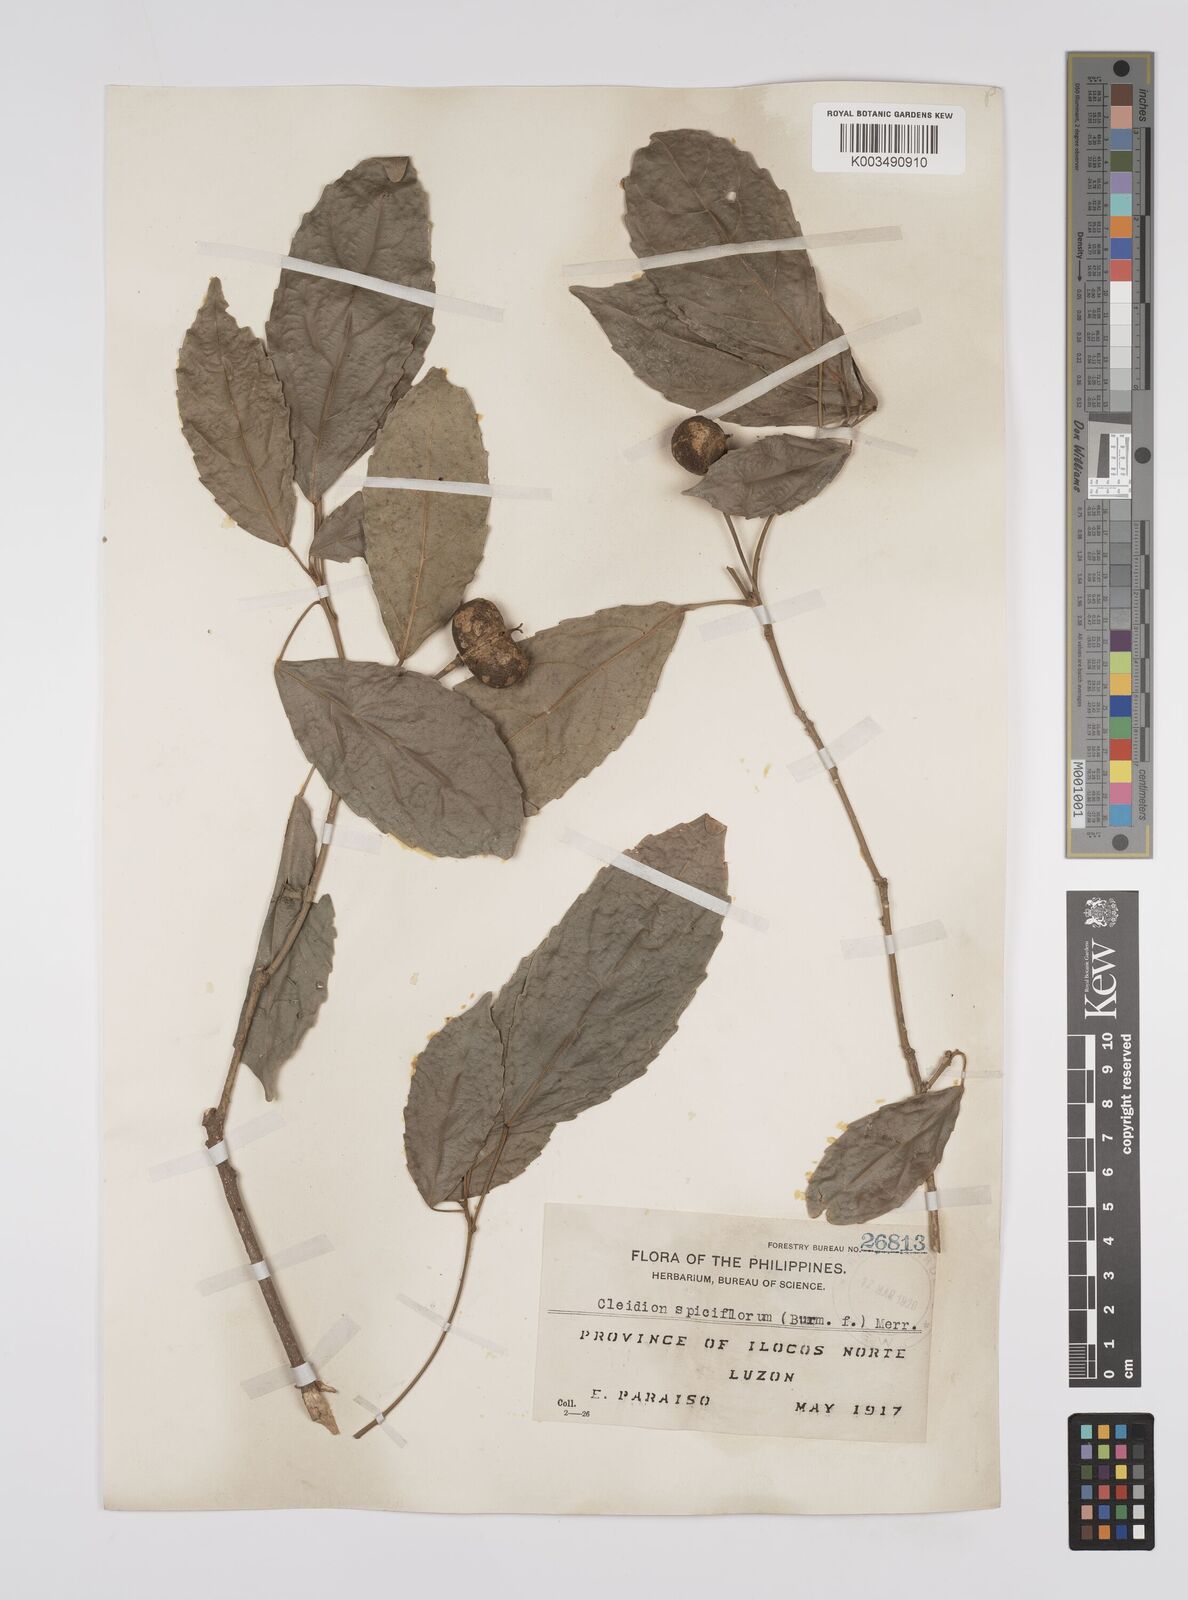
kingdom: Plantae
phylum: Tracheophyta
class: Magnoliopsida
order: Malpighiales
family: Euphorbiaceae
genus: Cleidion
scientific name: Cleidion javanicum
